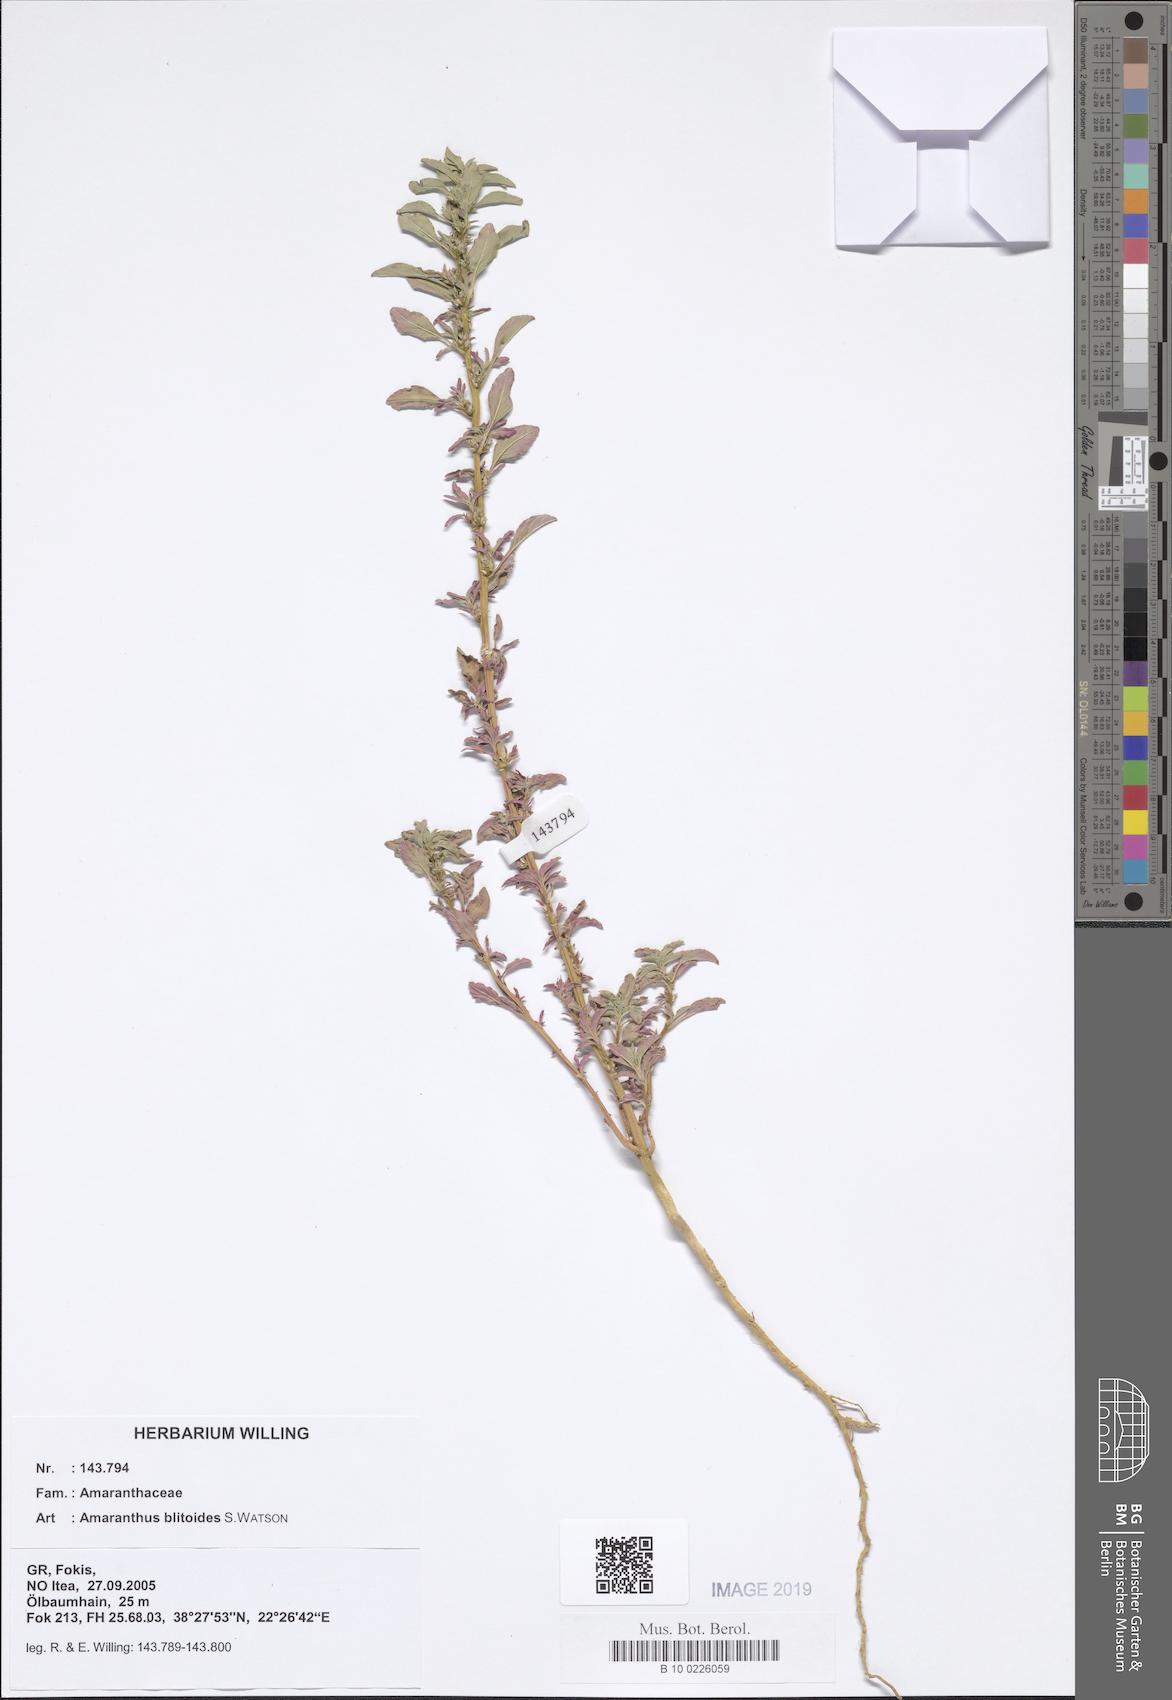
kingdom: Plantae
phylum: Tracheophyta
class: Magnoliopsida
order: Caryophyllales
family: Amaranthaceae
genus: Amaranthus
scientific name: Amaranthus blitoides
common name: Prostrate pigweed
